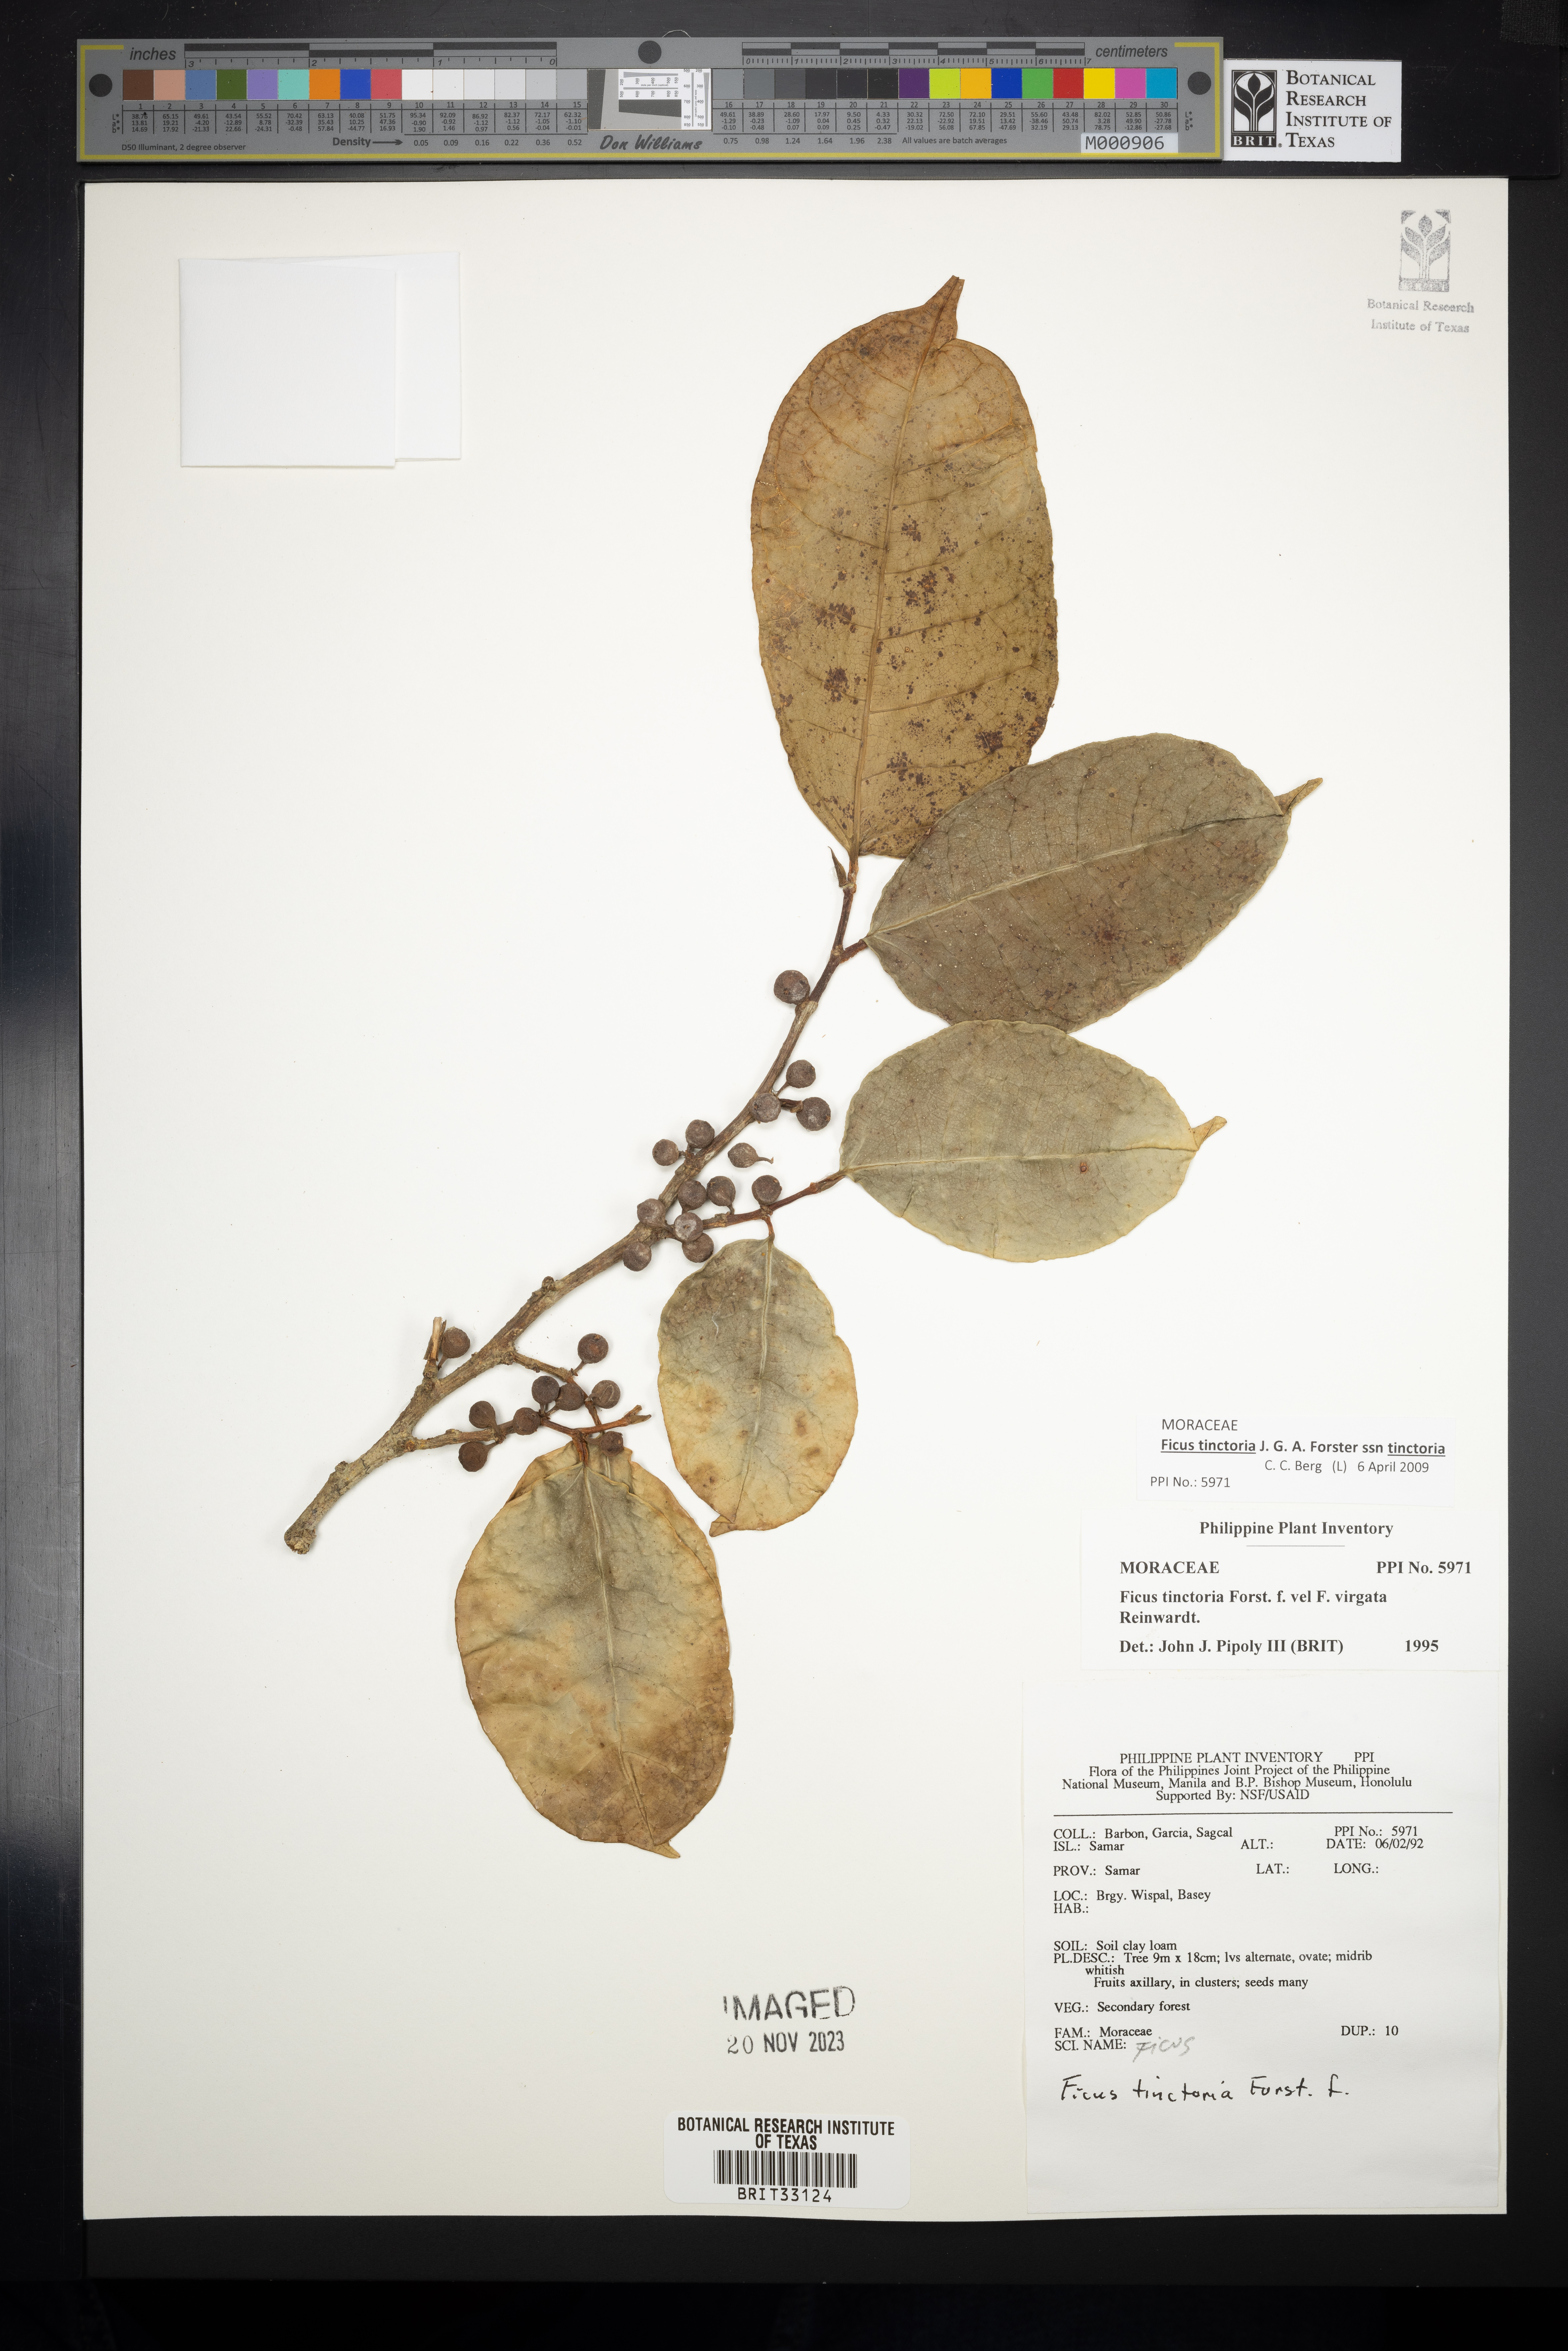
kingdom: Plantae
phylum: Tracheophyta
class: Magnoliopsida
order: Rosales
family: Moraceae
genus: Ficus
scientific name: Ficus
